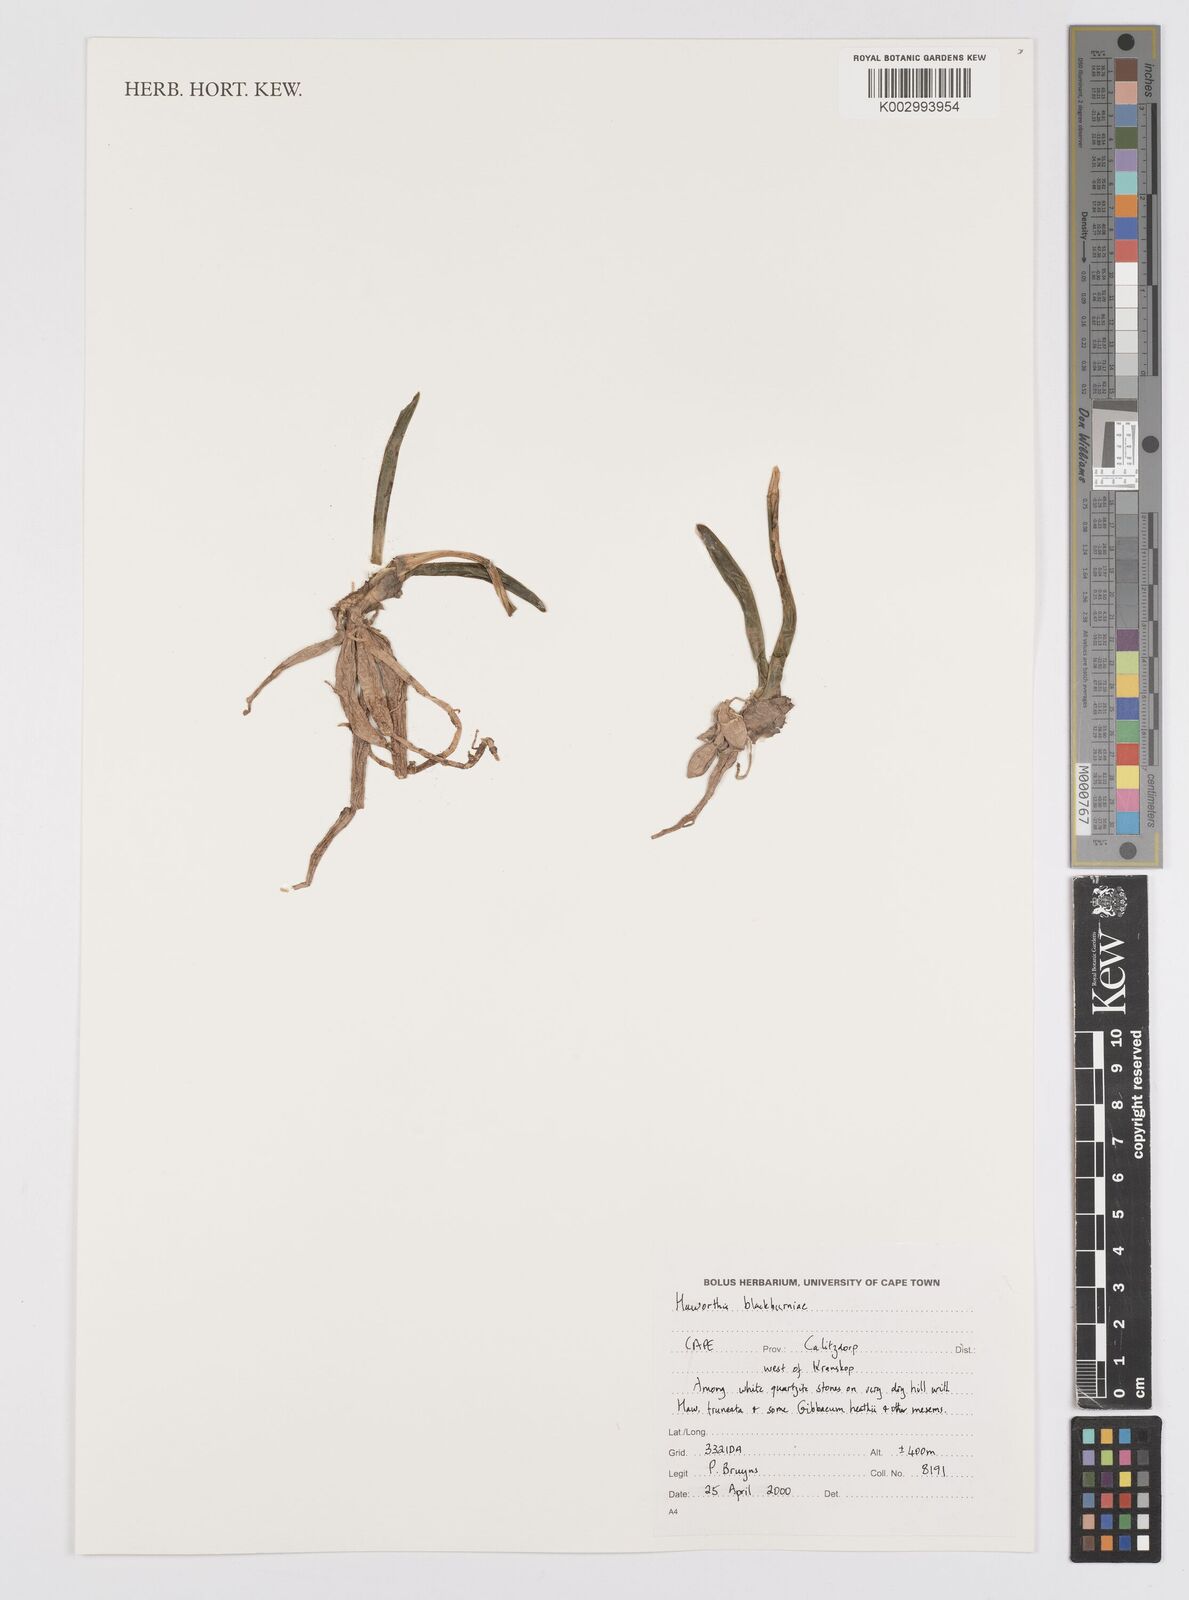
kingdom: Plantae
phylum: Tracheophyta
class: Liliopsida
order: Asparagales
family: Asphodelaceae
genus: Haworthia
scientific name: Haworthia bolusii
